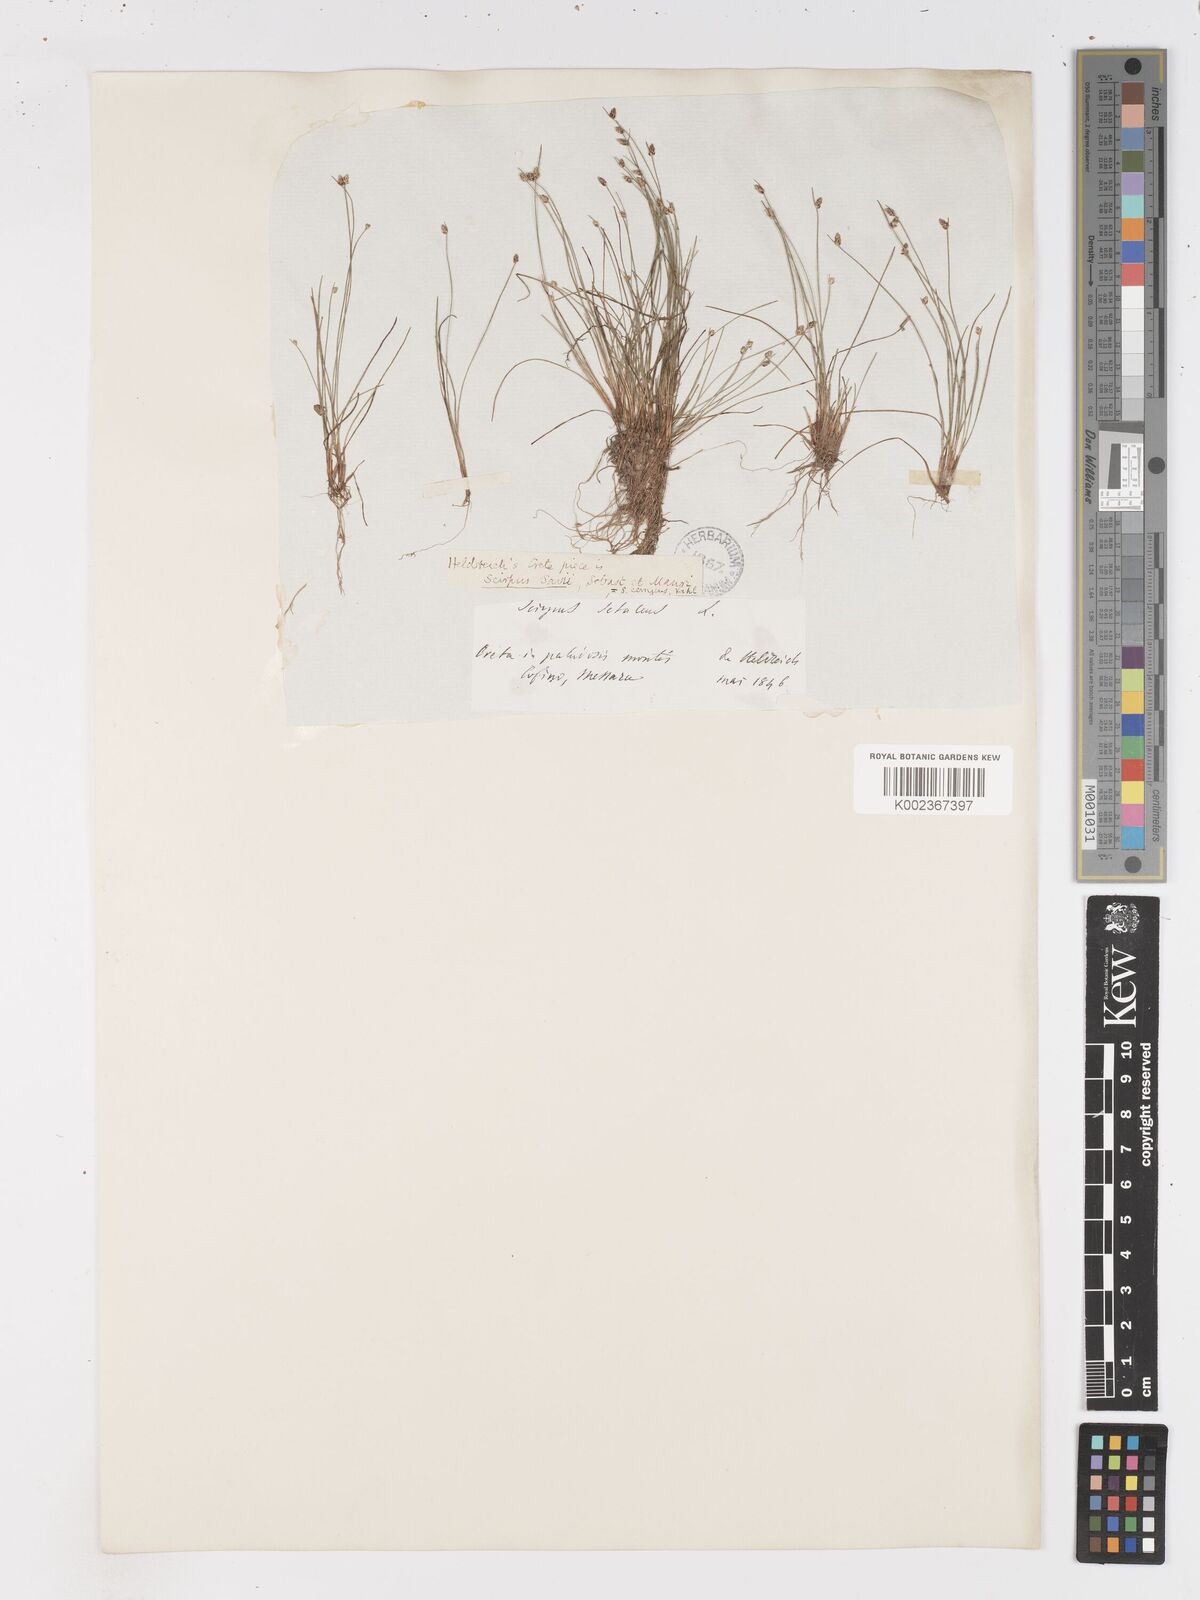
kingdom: Plantae
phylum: Tracheophyta
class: Liliopsida
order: Poales
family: Cyperaceae
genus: Isolepis
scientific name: Isolepis cernua
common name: Slender club-rush
